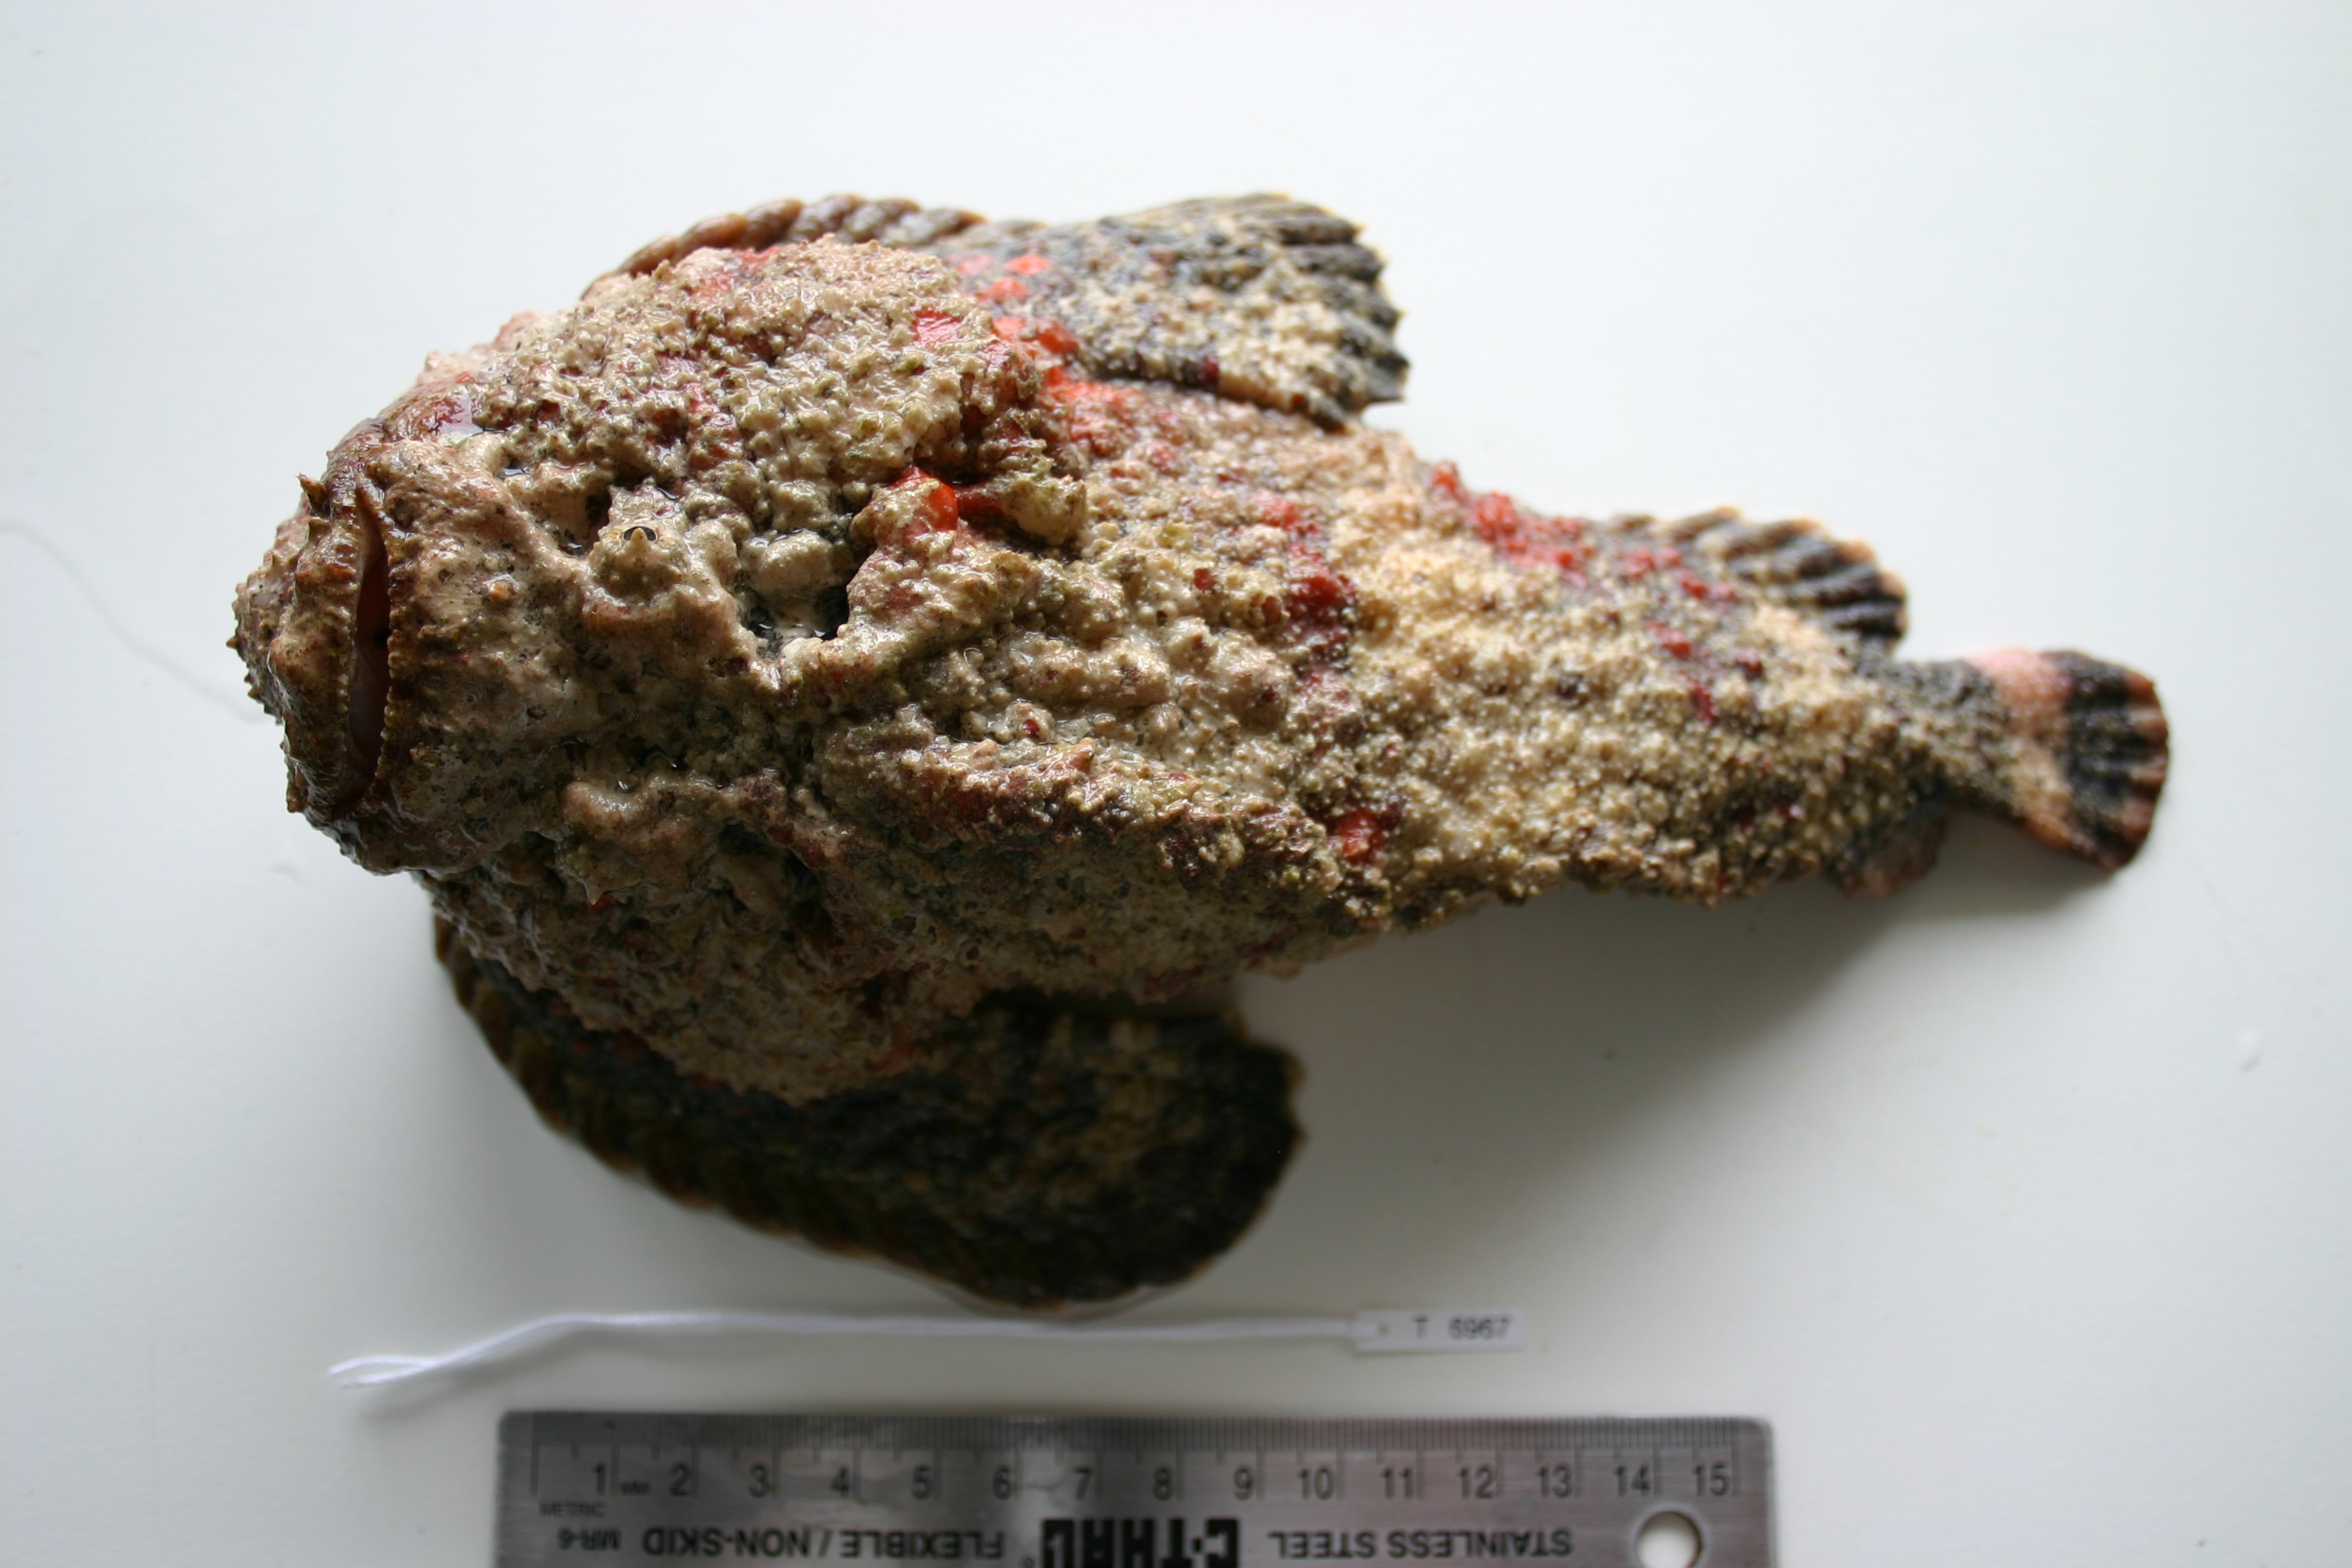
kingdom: Animalia
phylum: Chordata
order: Scorpaeniformes
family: Synanceiidae
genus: Synanceia
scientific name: Synanceia verrucosa
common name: Stonefish
